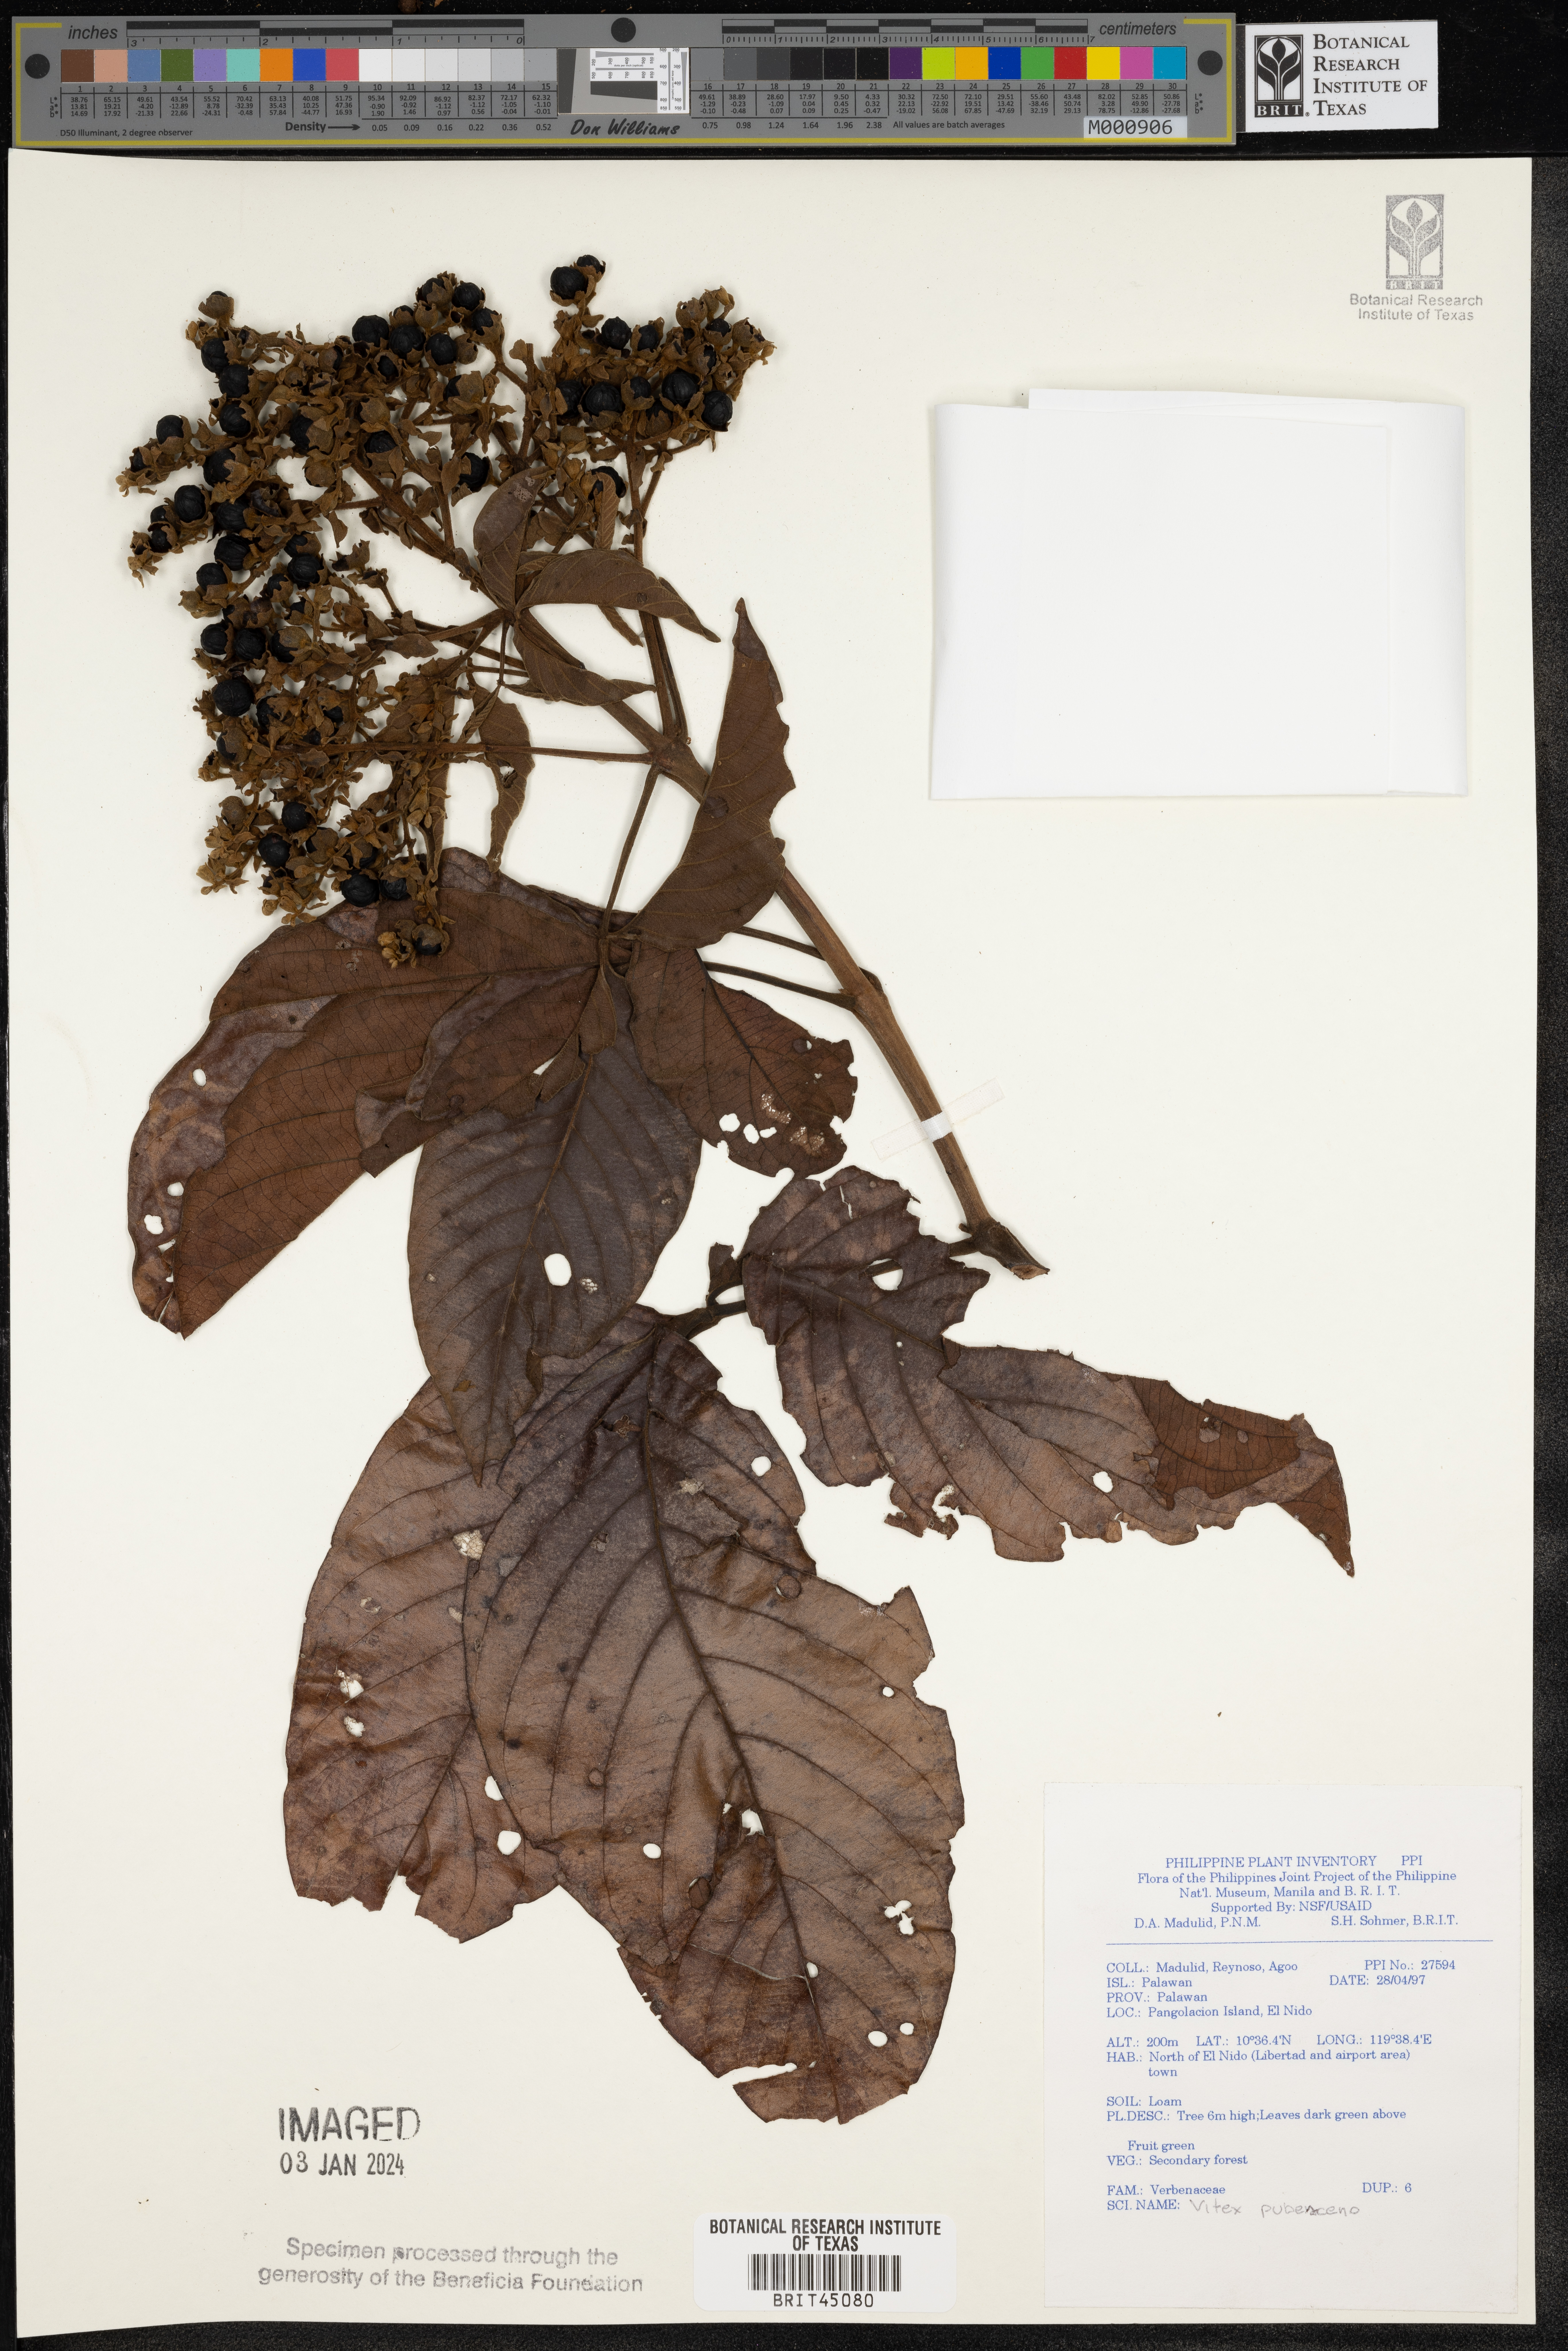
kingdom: Plantae
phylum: Tracheophyta
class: Magnoliopsida
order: Lamiales
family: Lamiaceae
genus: Vitex
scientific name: Vitex pinnata
